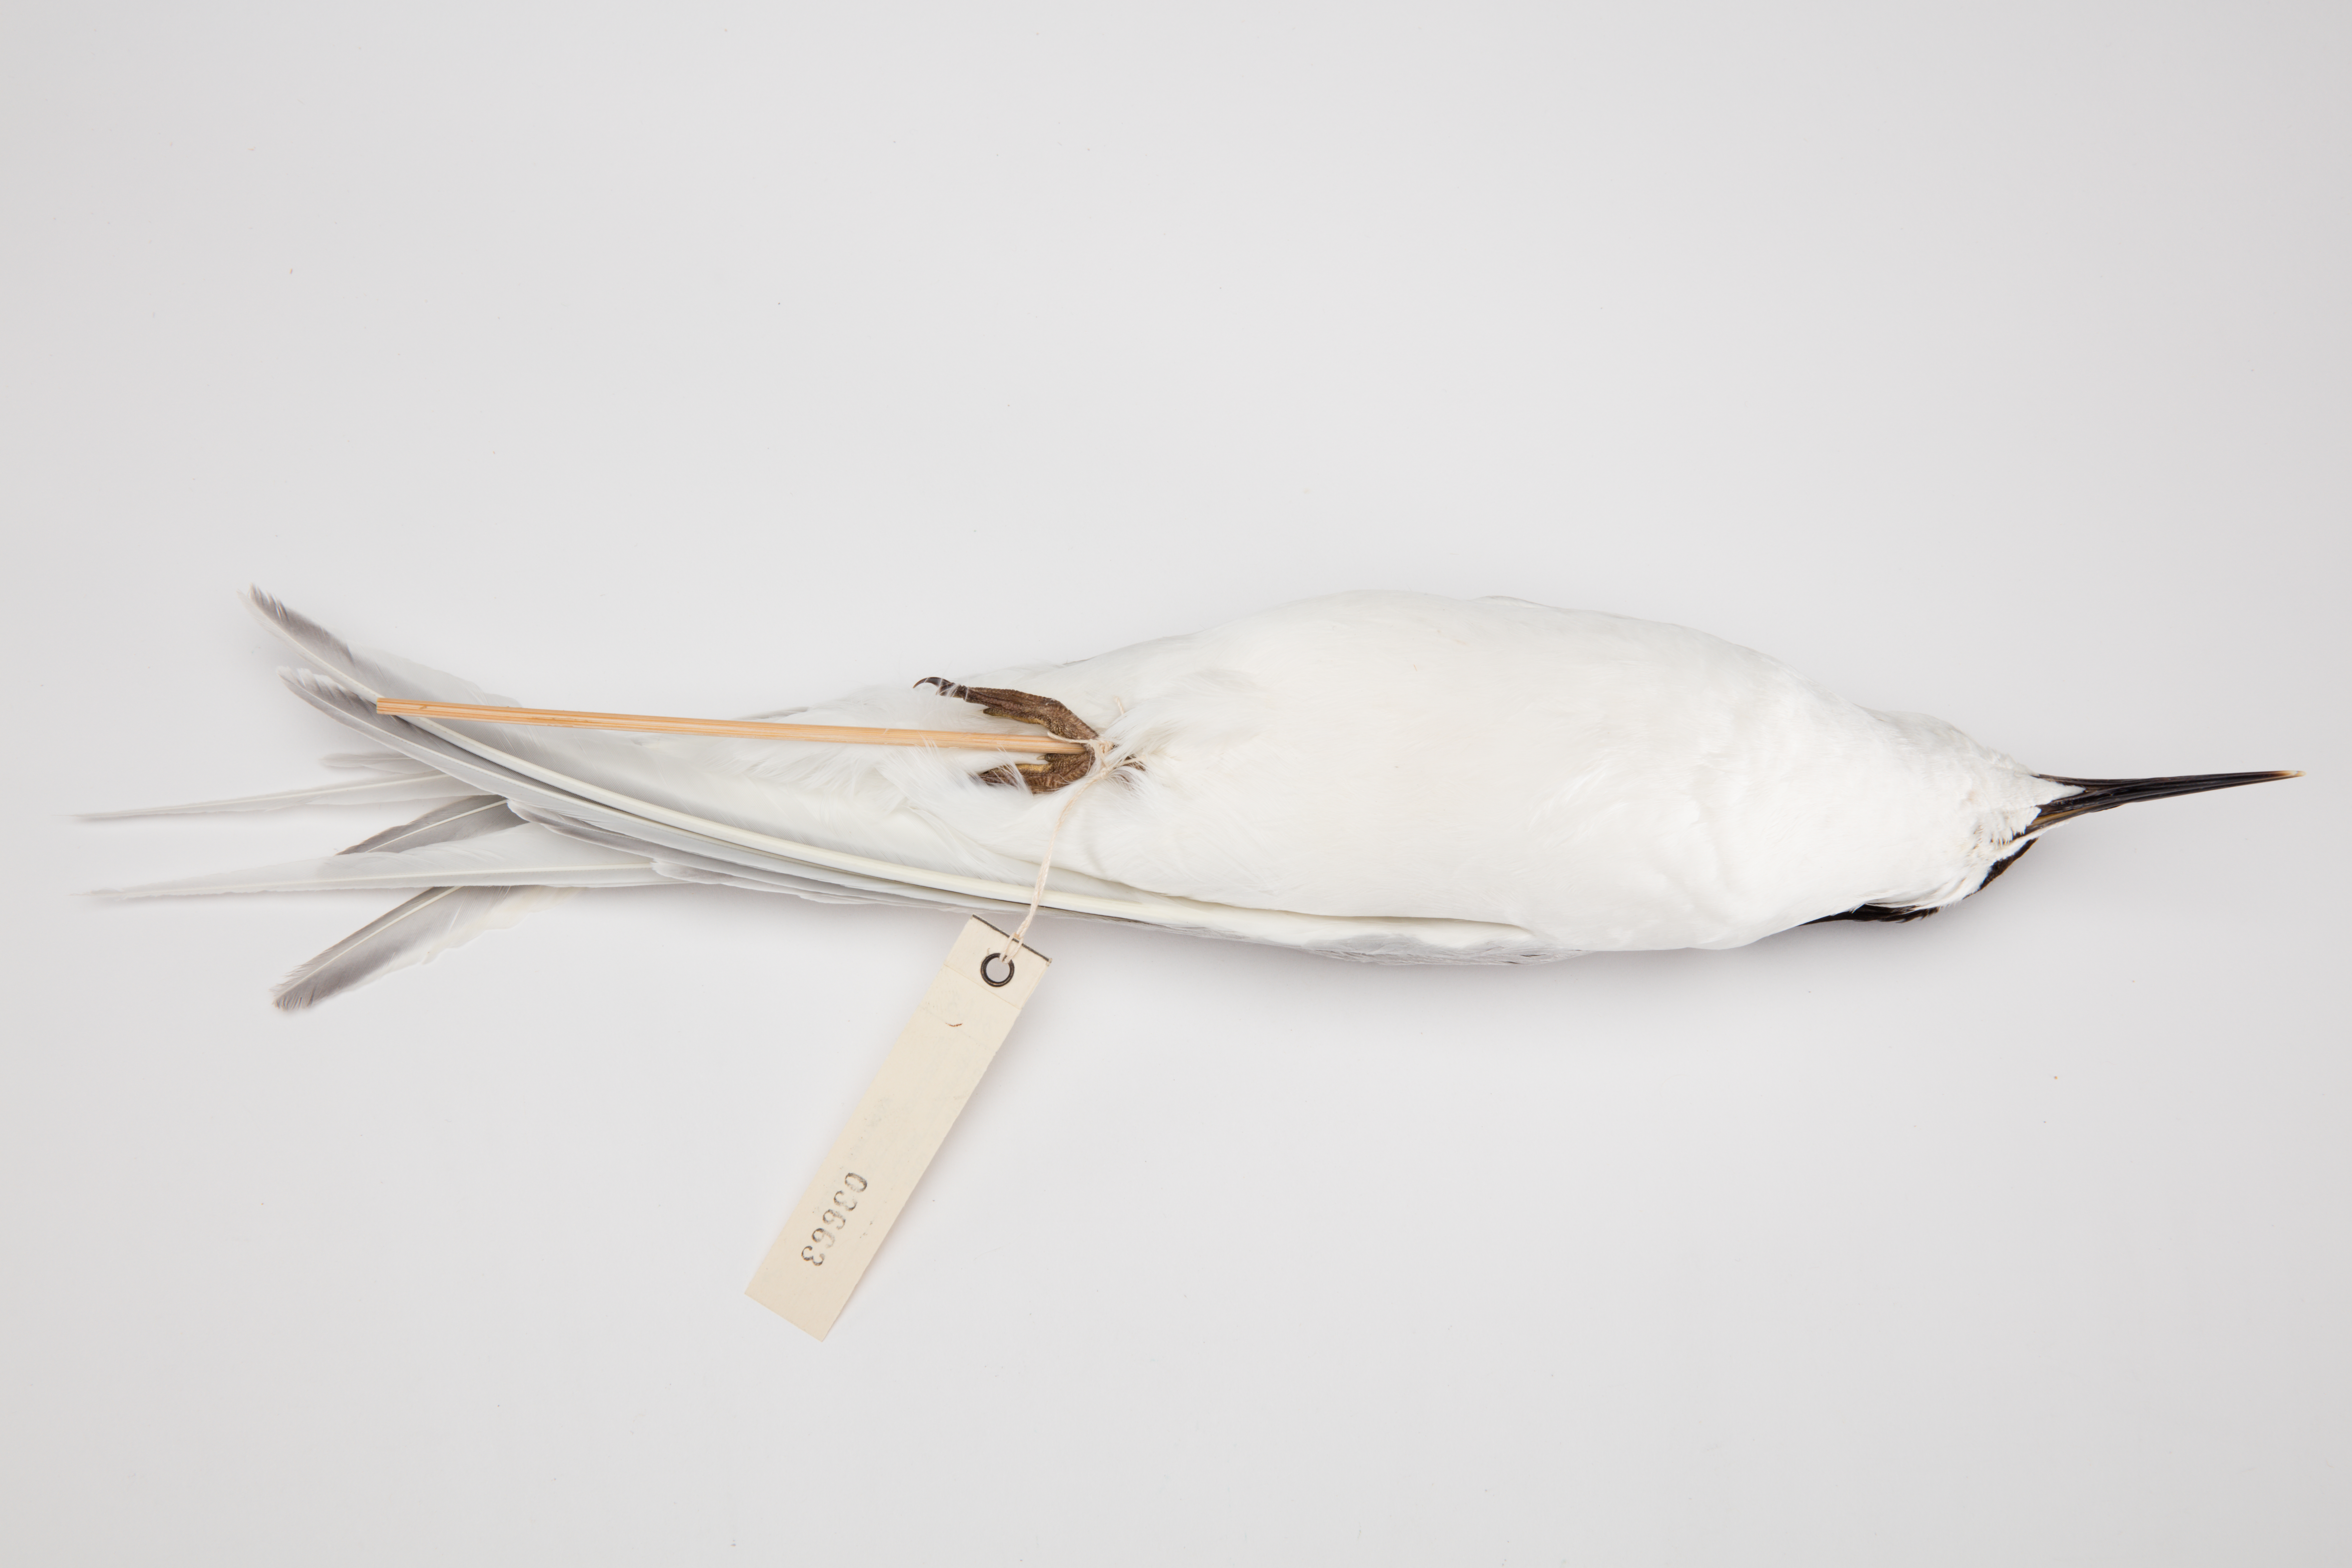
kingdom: Animalia
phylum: Chordata
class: Aves
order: Charadriiformes
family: Laridae
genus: Sterna
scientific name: Sterna striata
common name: White-fronted tern
